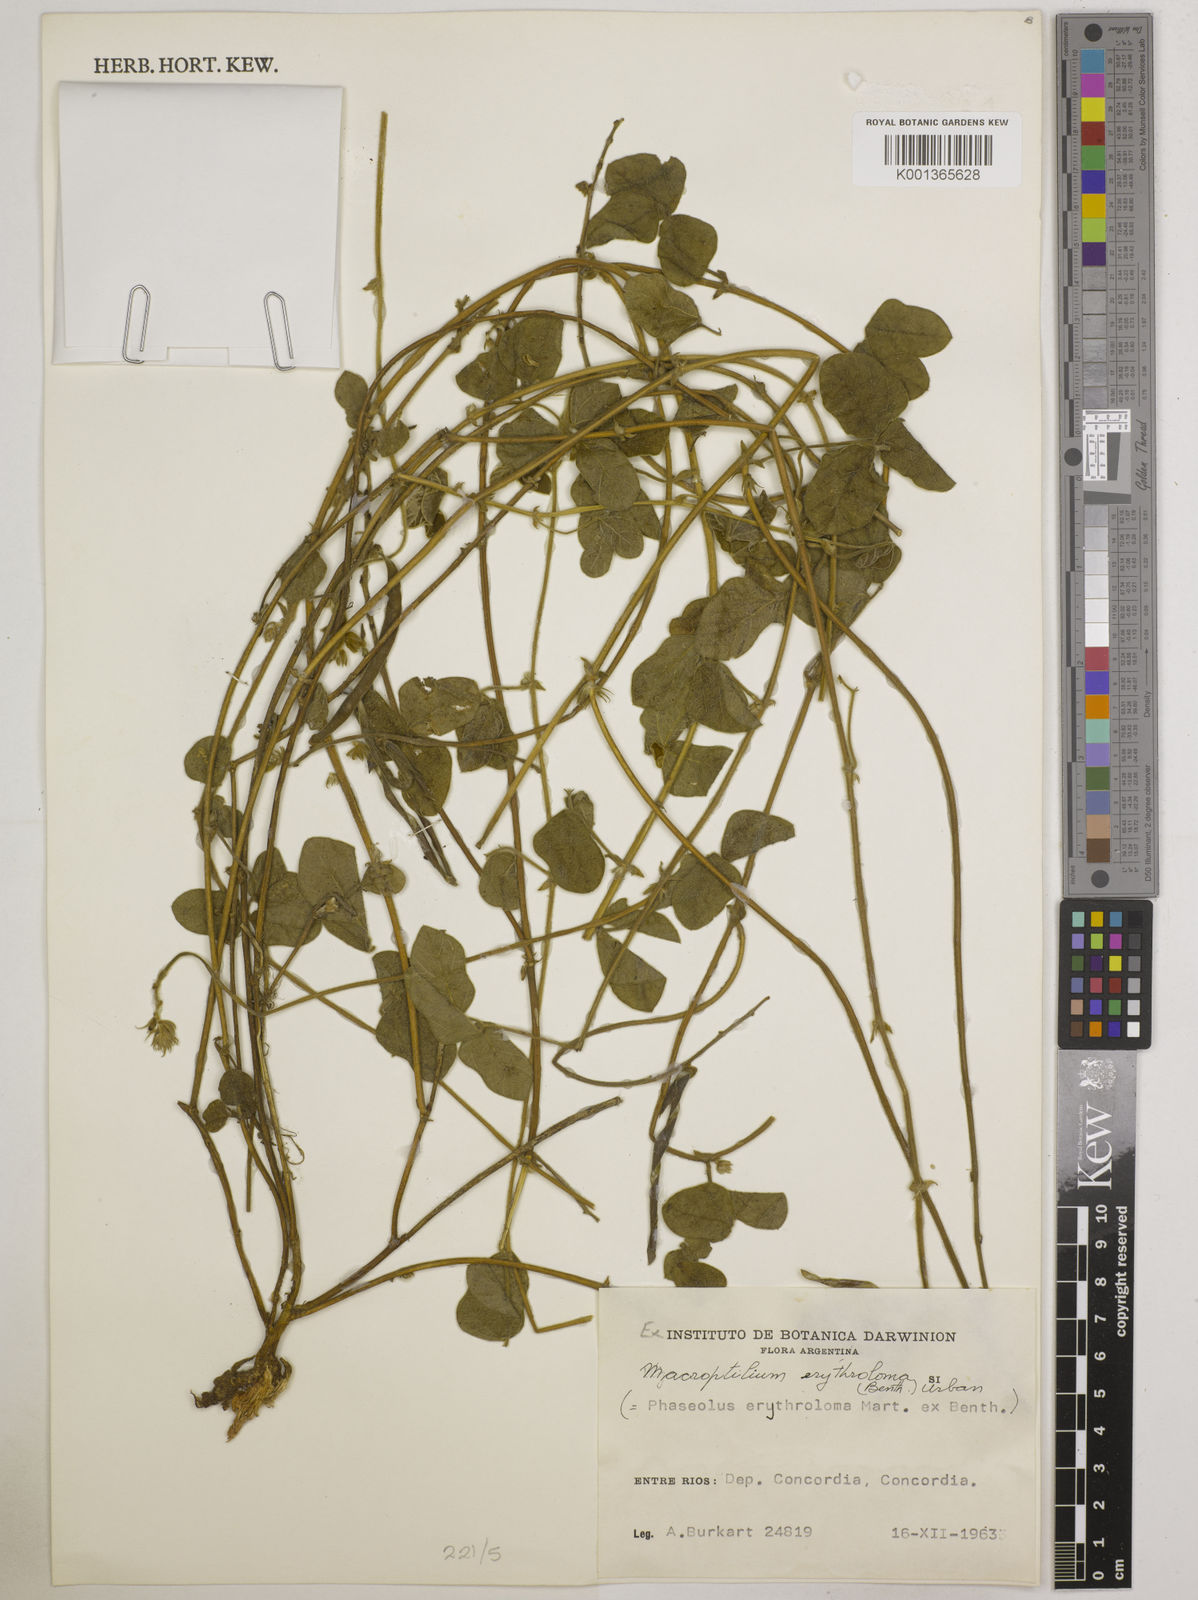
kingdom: Plantae
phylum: Tracheophyta
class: Magnoliopsida
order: Fabales
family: Fabaceae
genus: Macroptilium
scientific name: Macroptilium erythroloma
